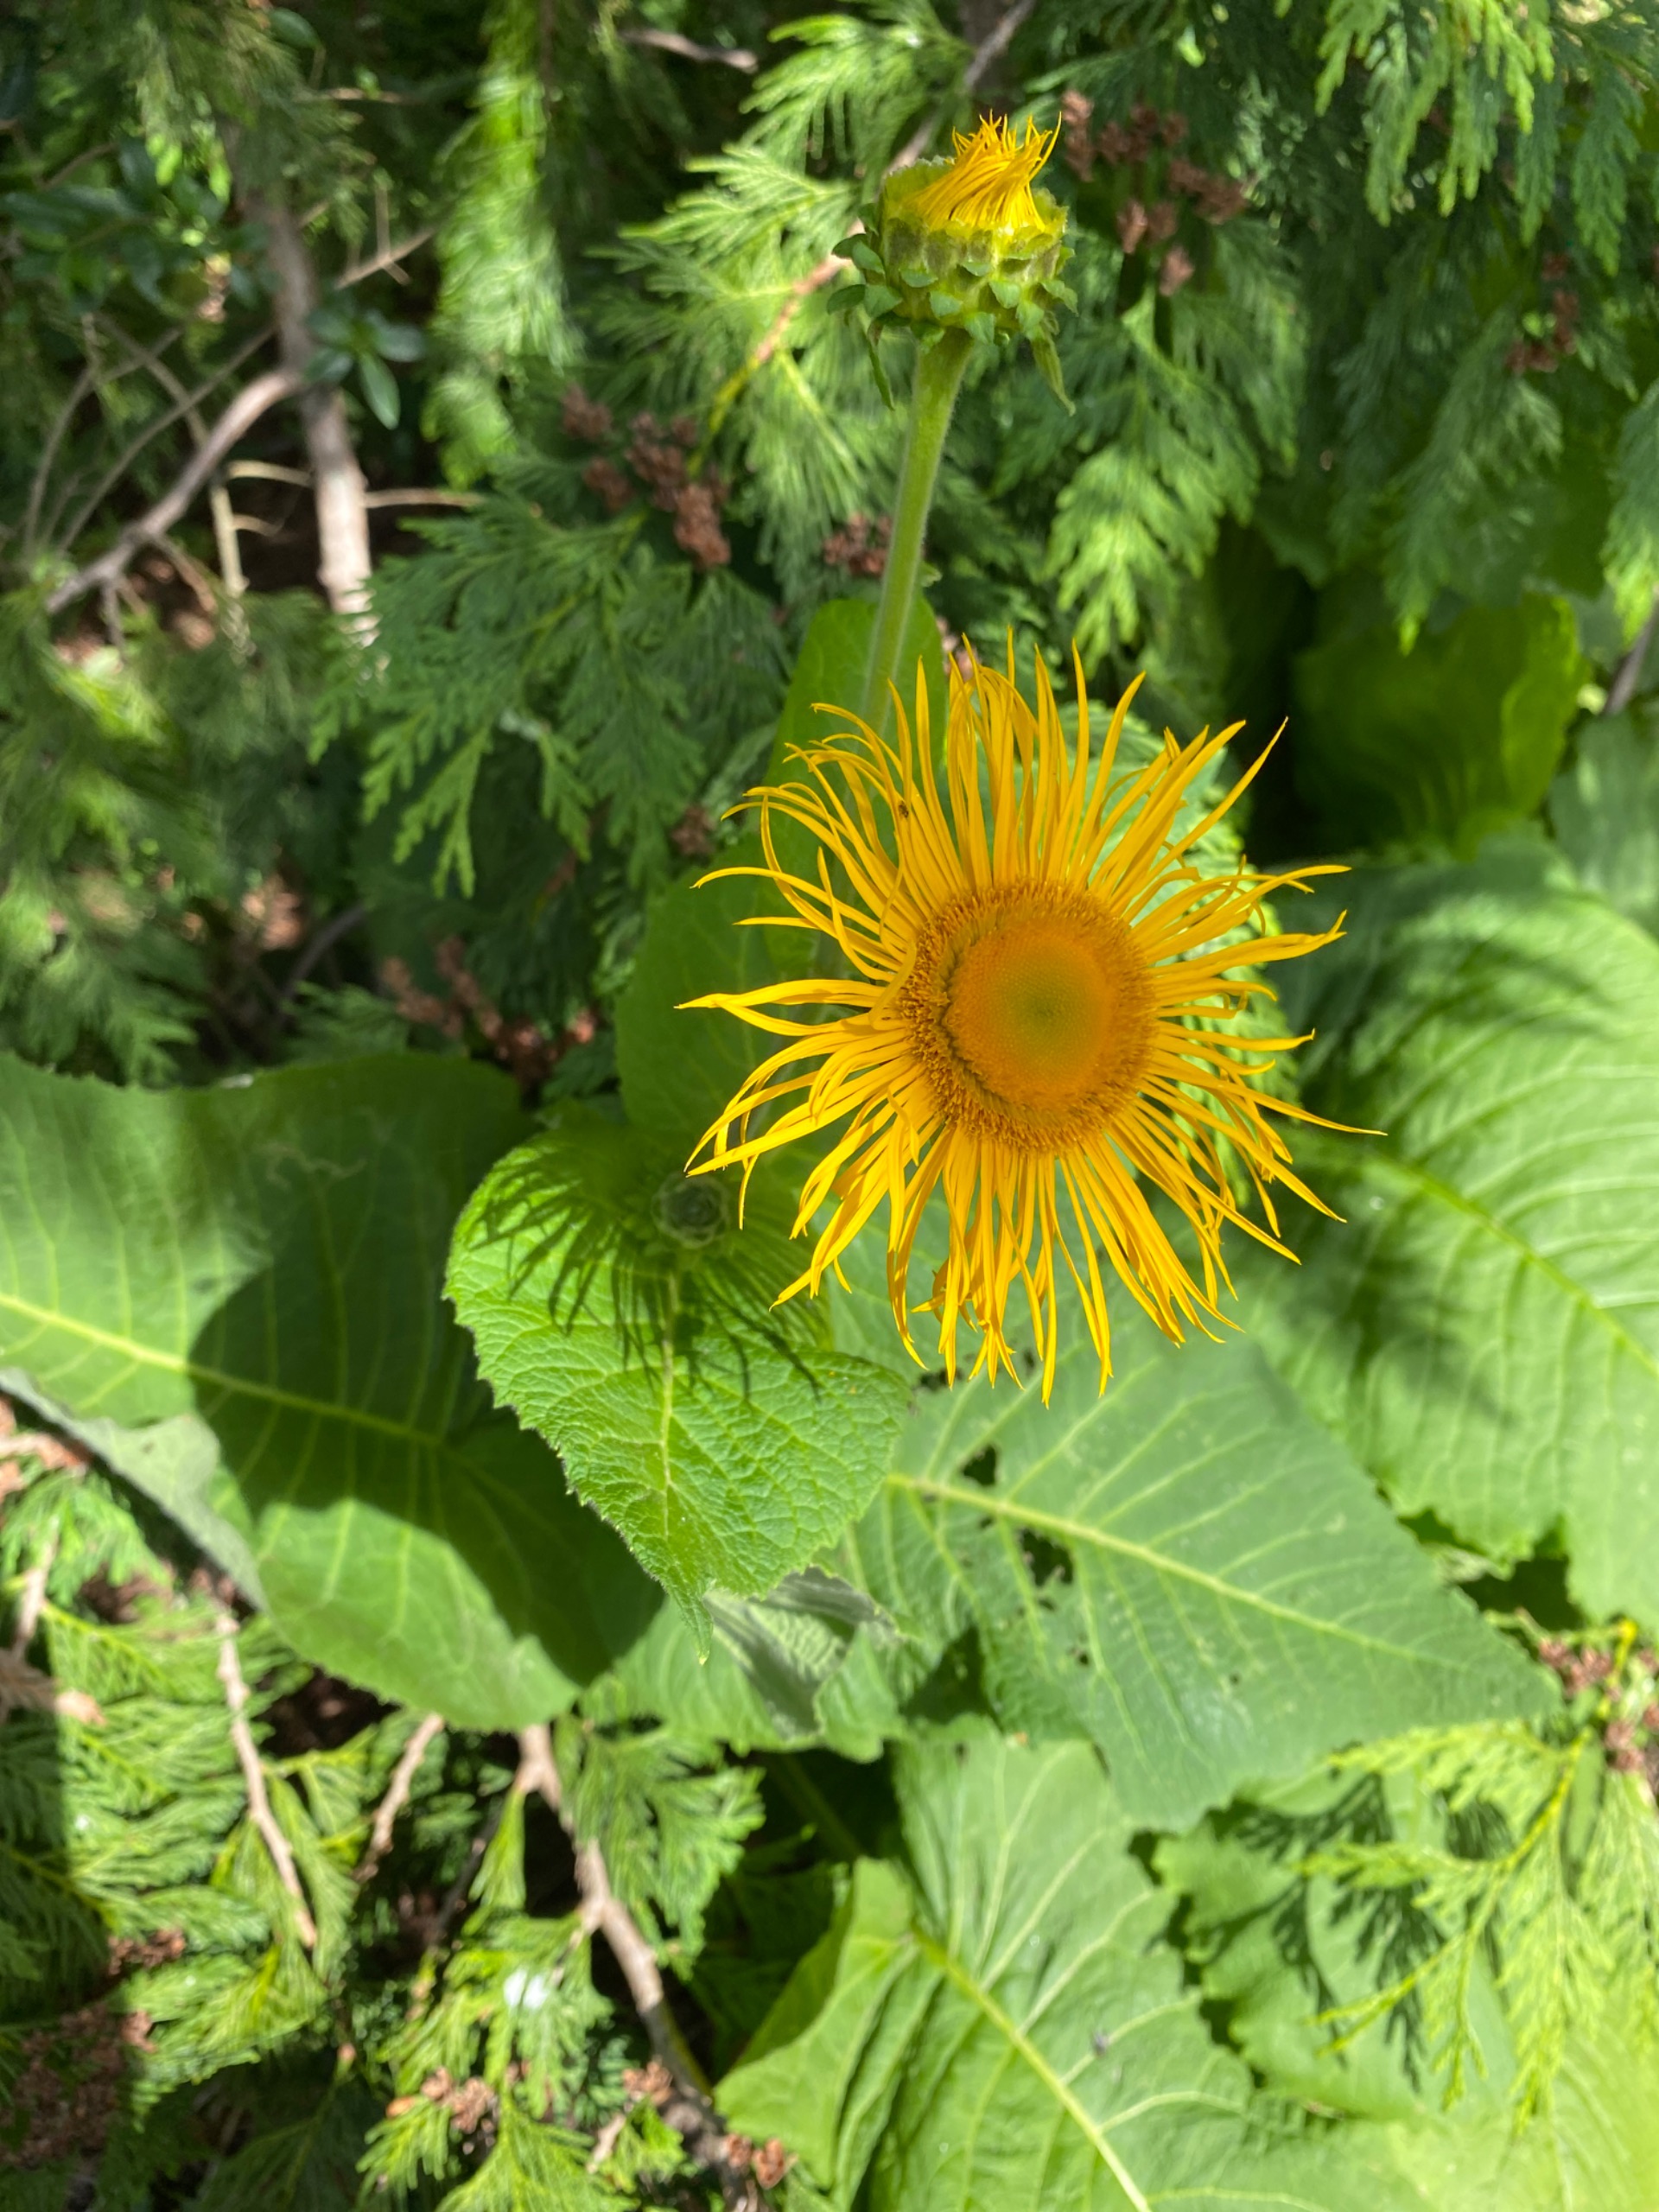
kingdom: Plantae
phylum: Tracheophyta
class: Magnoliopsida
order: Asterales
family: Asteraceae
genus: Telekia
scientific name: Telekia speciosa
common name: Tusindstråle
